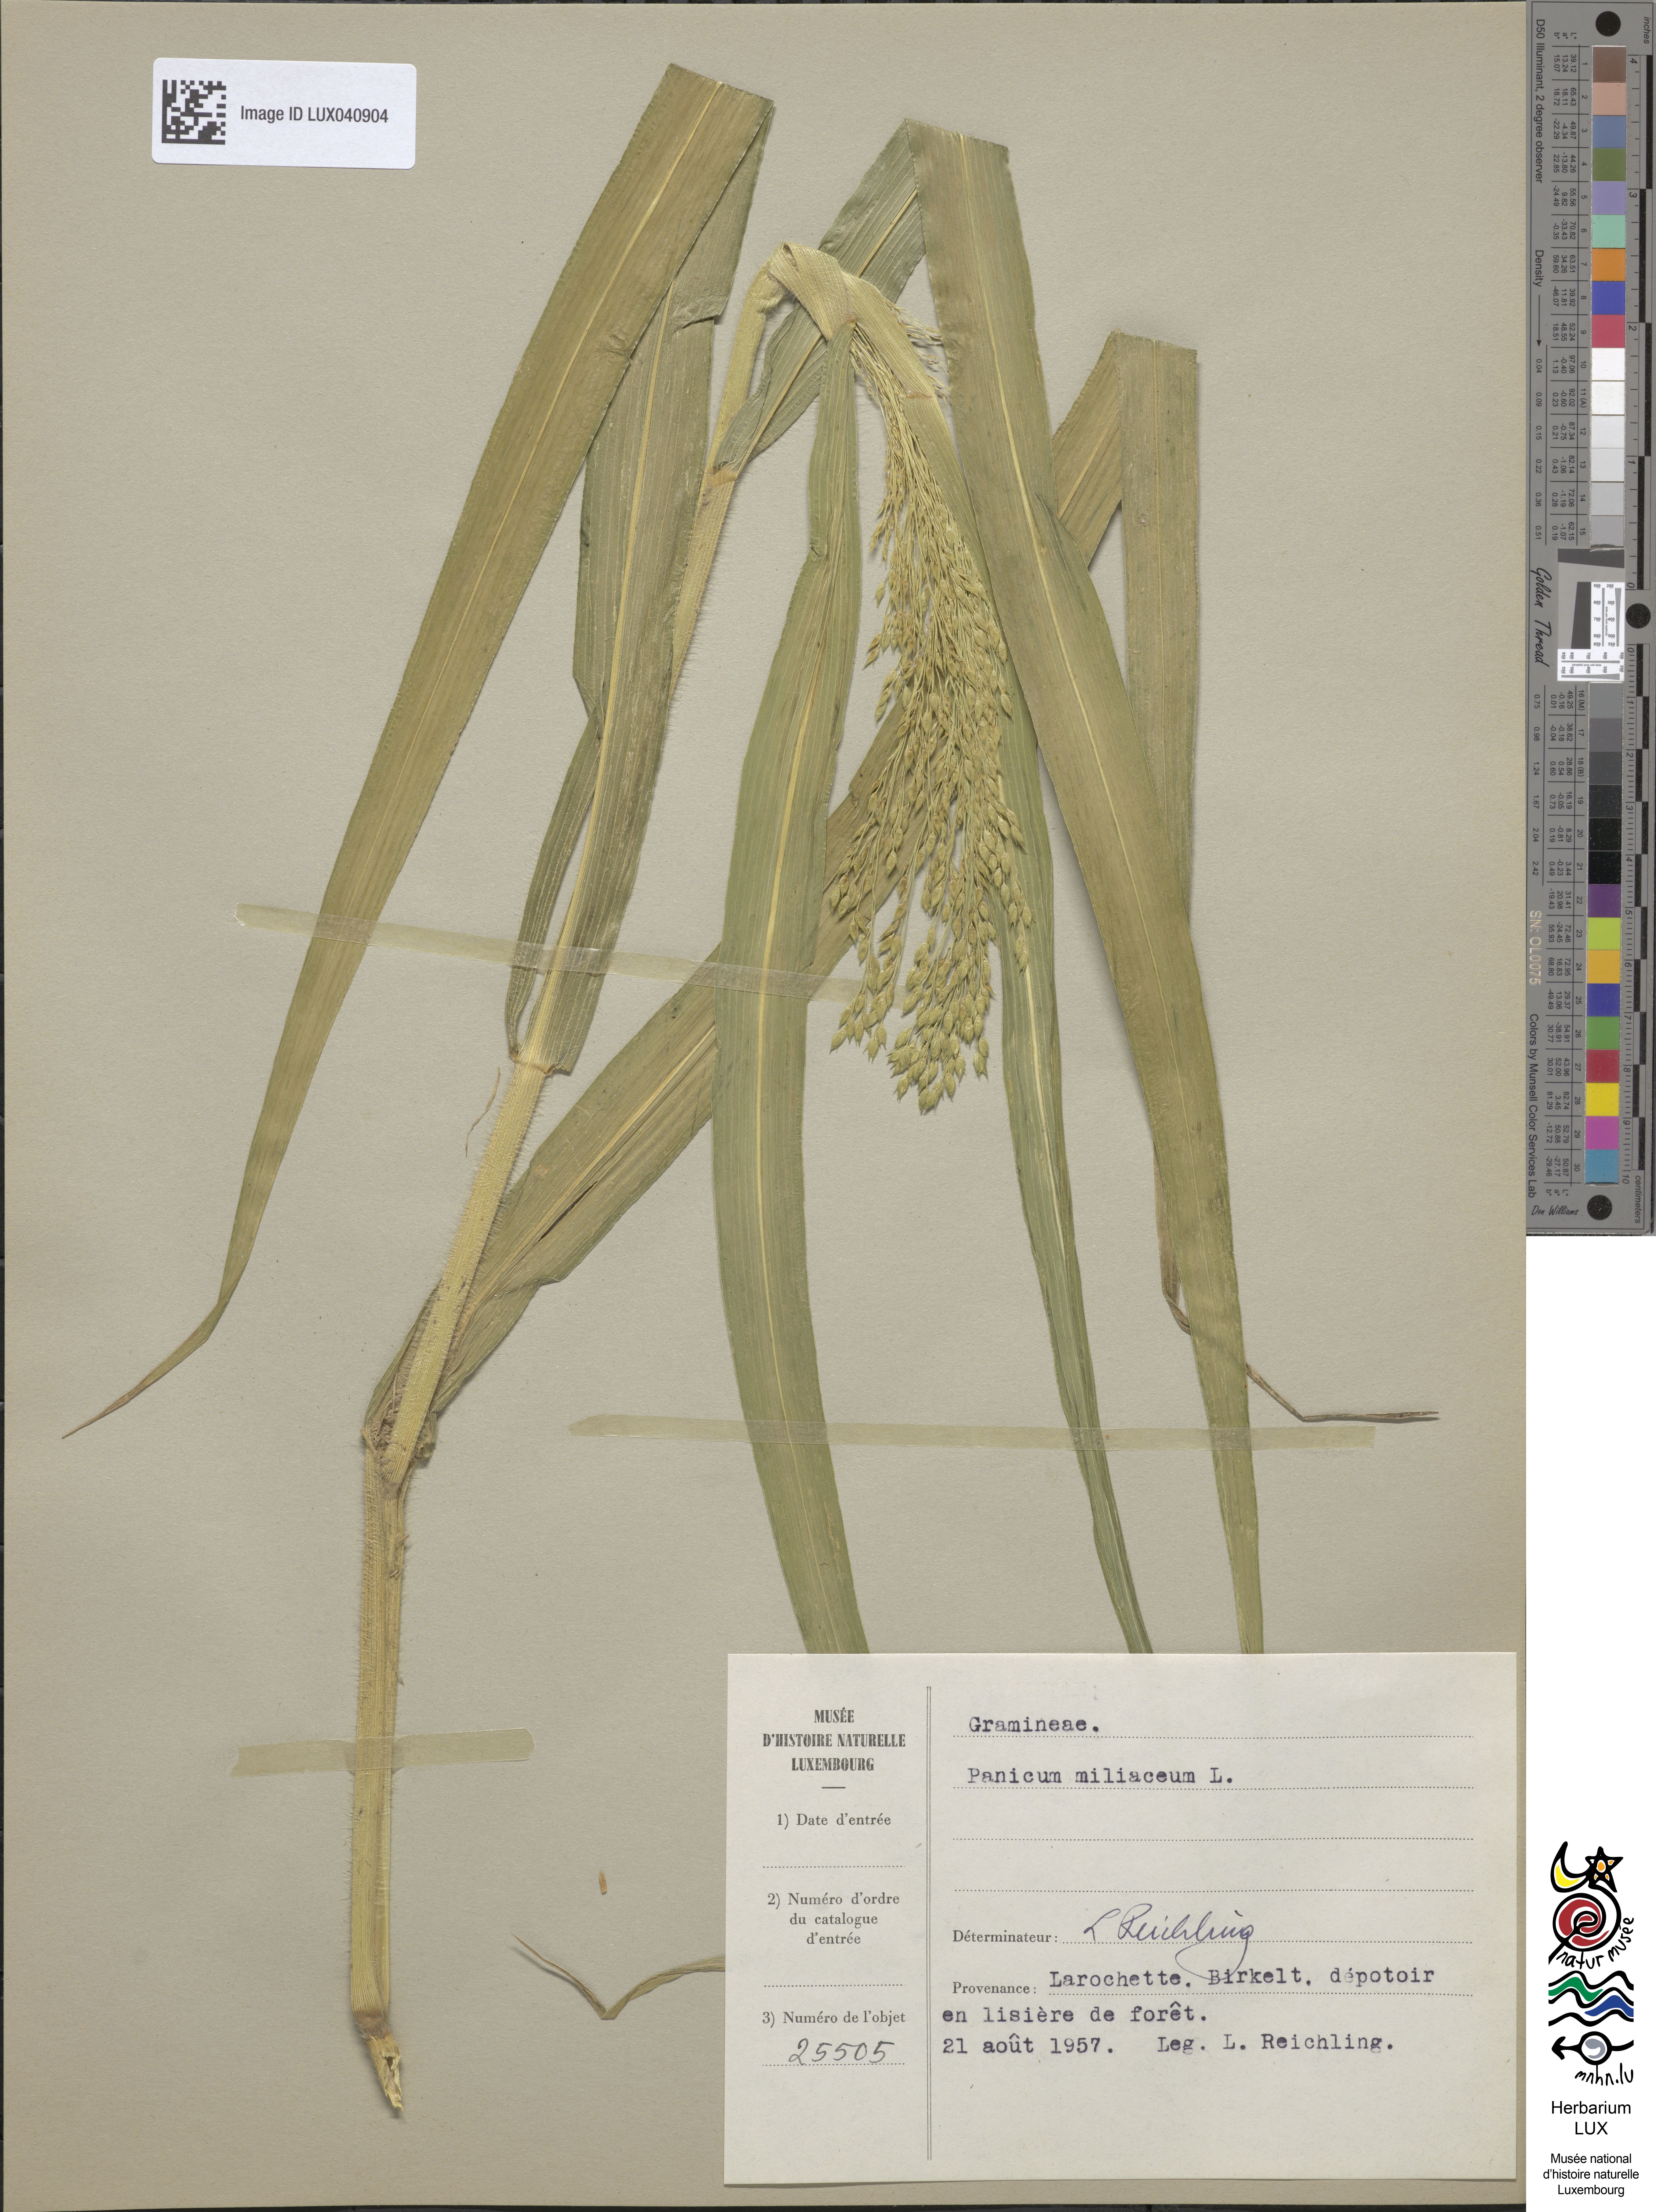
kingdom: Plantae
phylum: Tracheophyta
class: Liliopsida
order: Poales
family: Poaceae
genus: Panicum
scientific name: Panicum miliaceum
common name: Common millet
